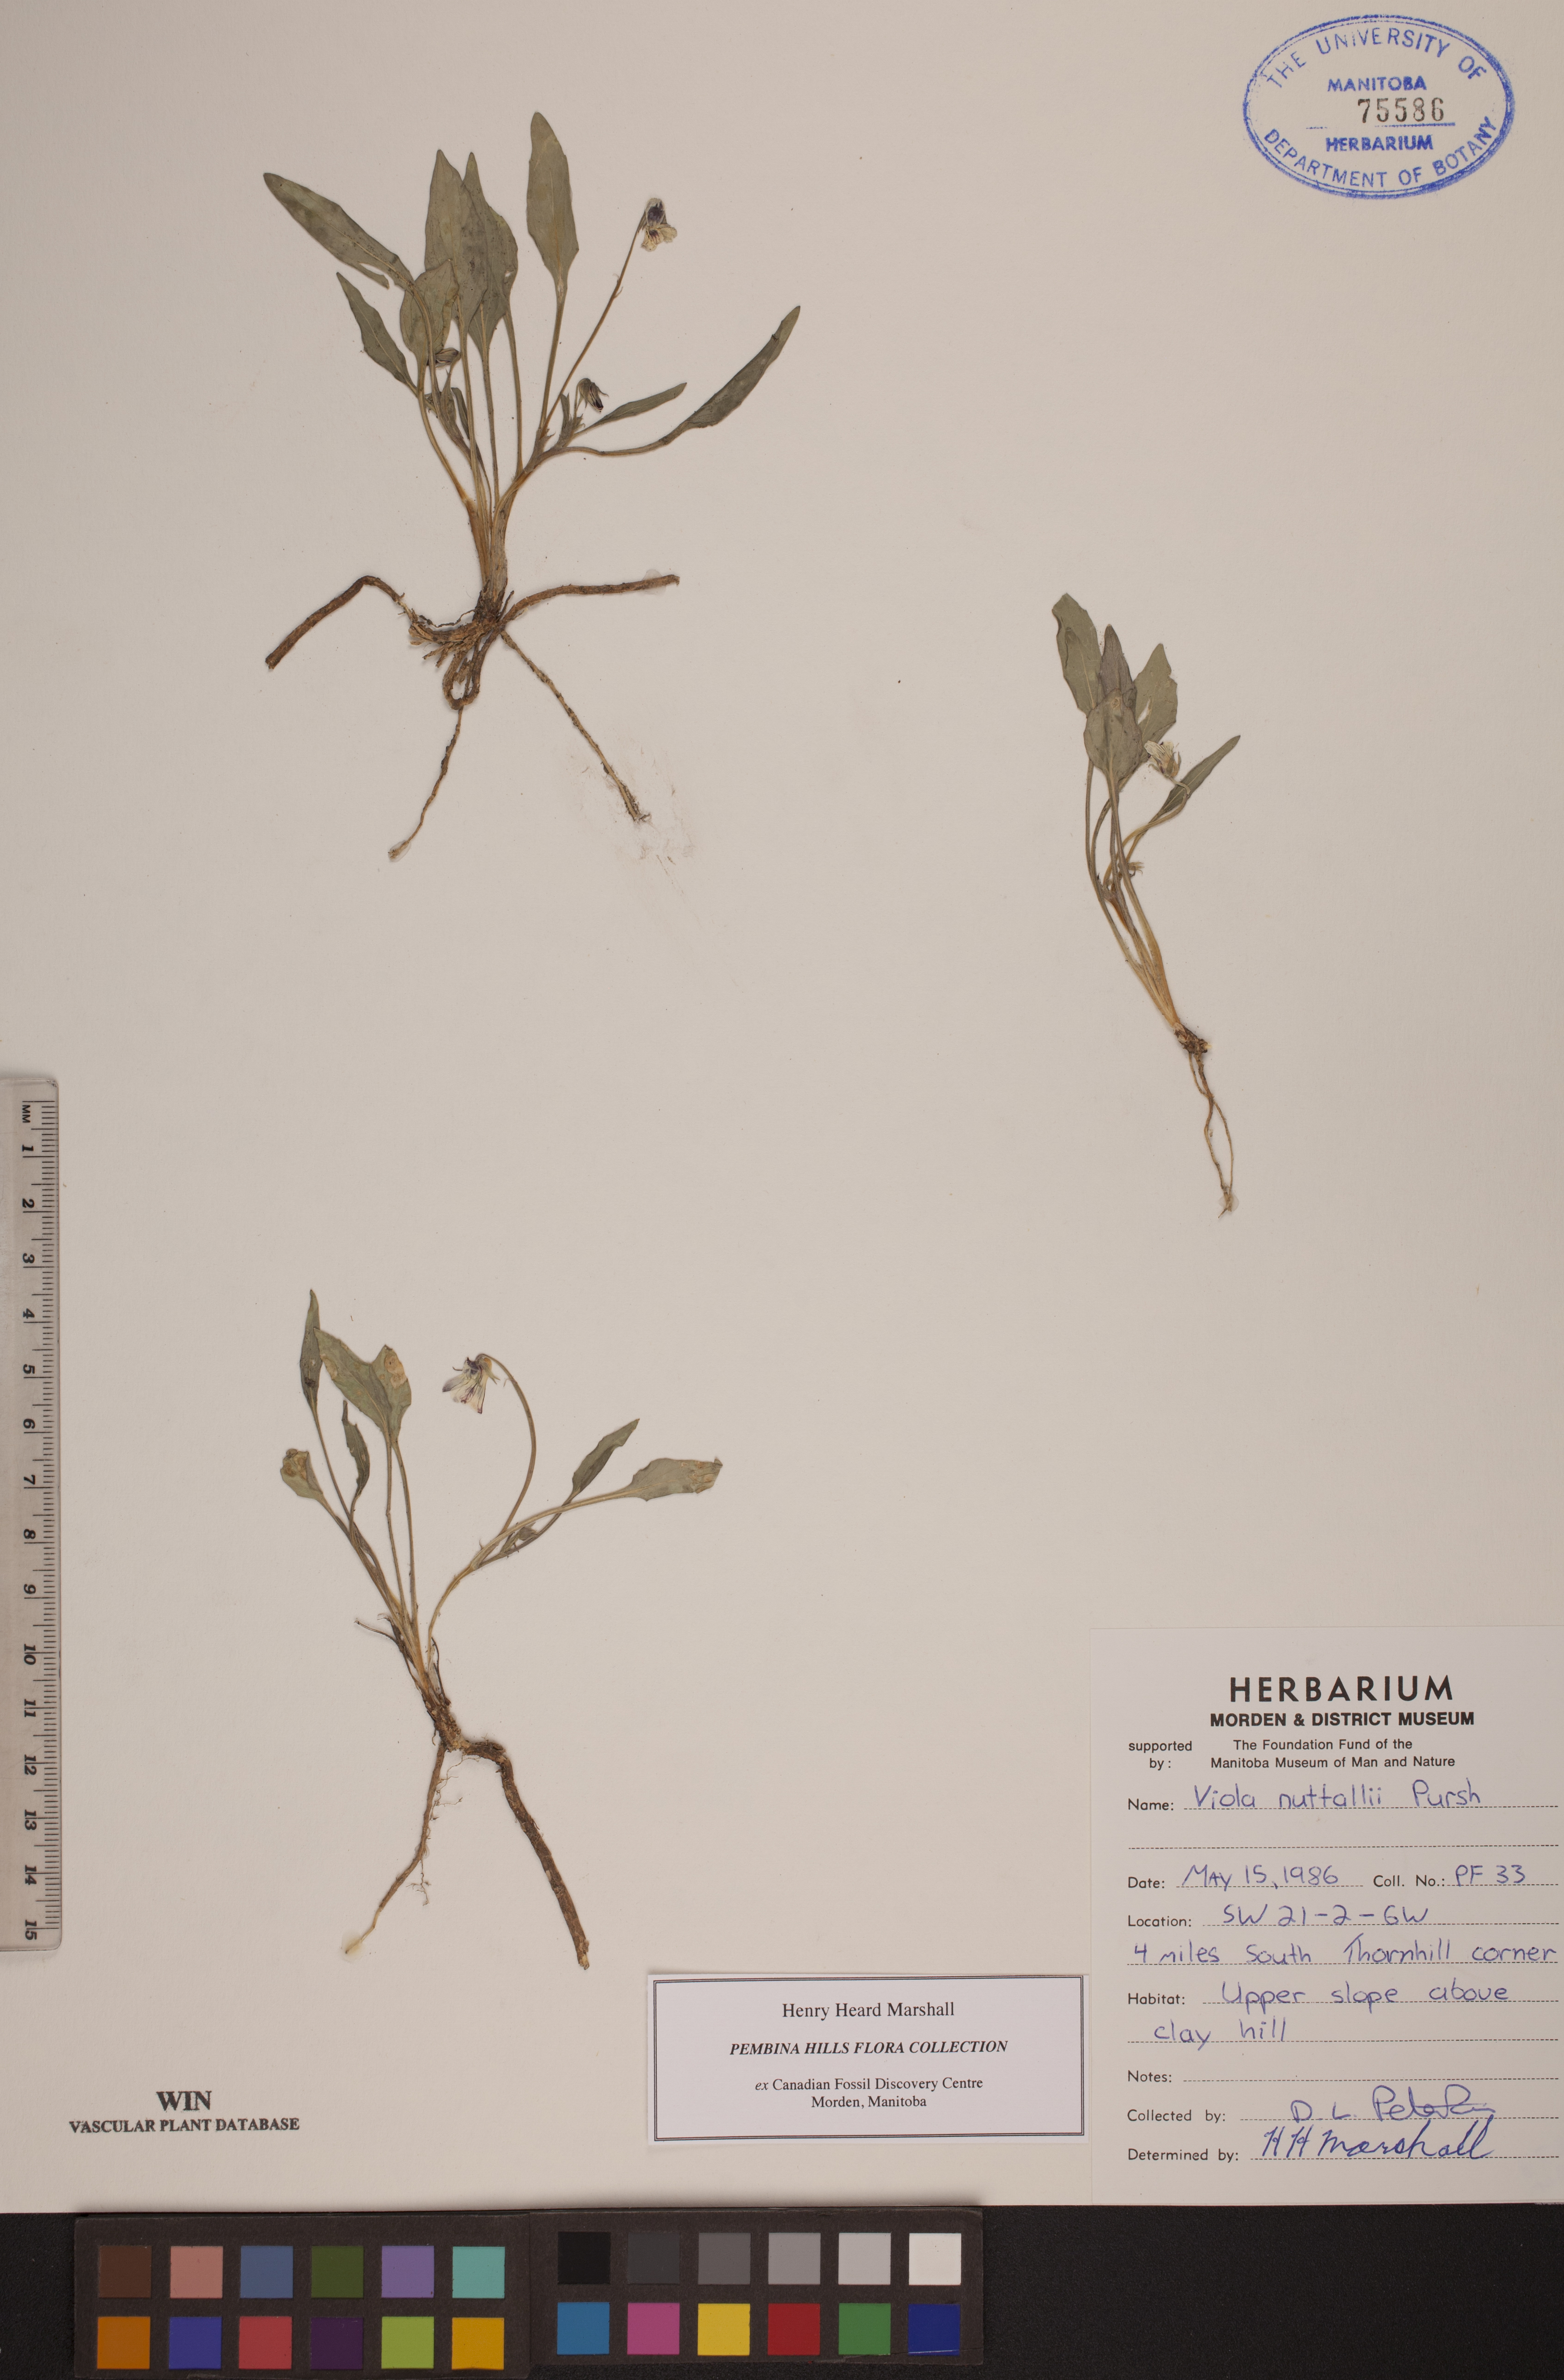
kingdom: Plantae
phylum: Tracheophyta
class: Magnoliopsida
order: Malpighiales
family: Violaceae
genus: Viola
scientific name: Viola nuttallii
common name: Yellow prairie violet
